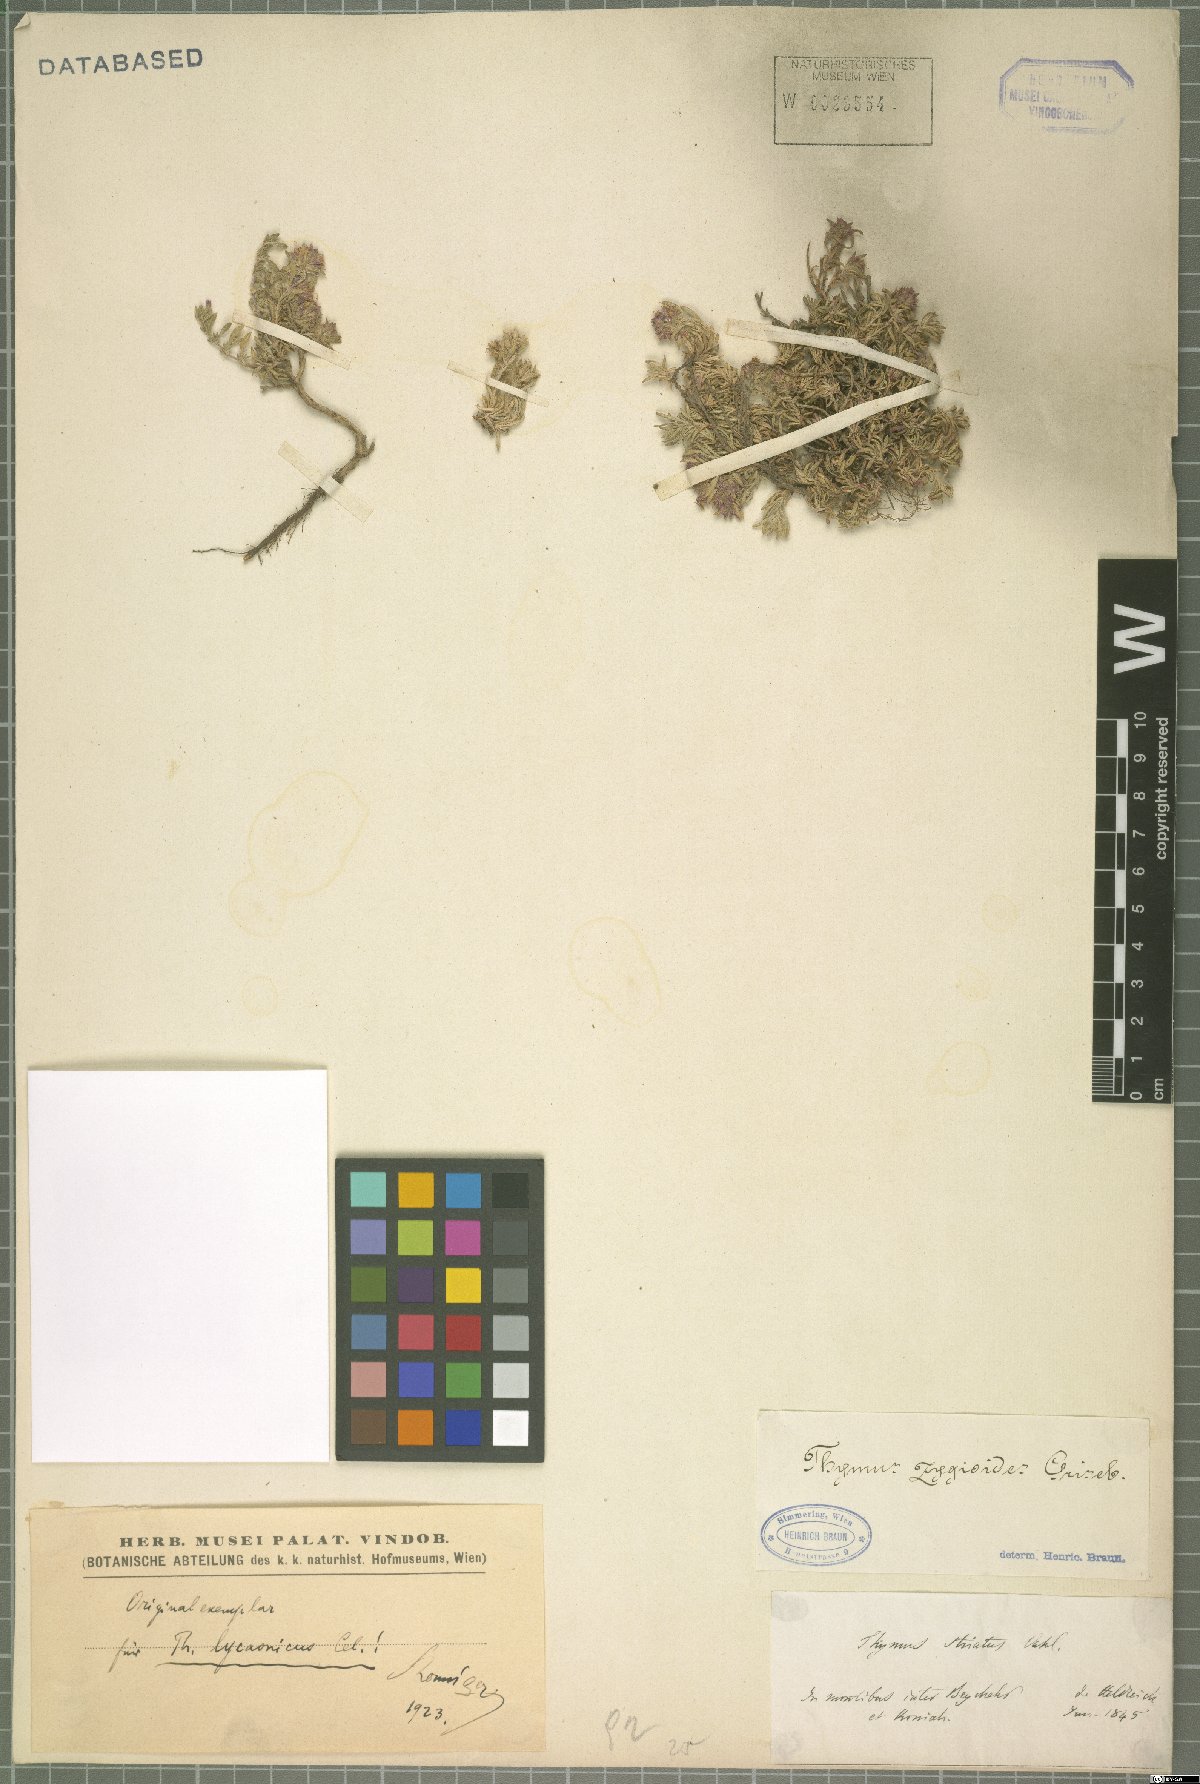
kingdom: Plantae
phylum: Tracheophyta
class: Magnoliopsida
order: Lamiales
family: Lamiaceae
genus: Thymus
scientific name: Thymus zygioides
